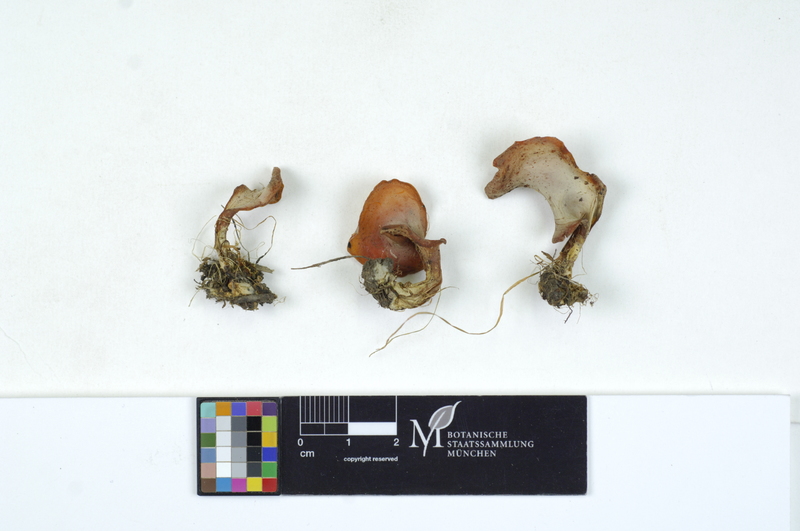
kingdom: Fungi
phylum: Basidiomycota
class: Agaricomycetes
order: Auriculariales
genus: Guepinia
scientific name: Guepinia helvelloides
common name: Salmon salad
